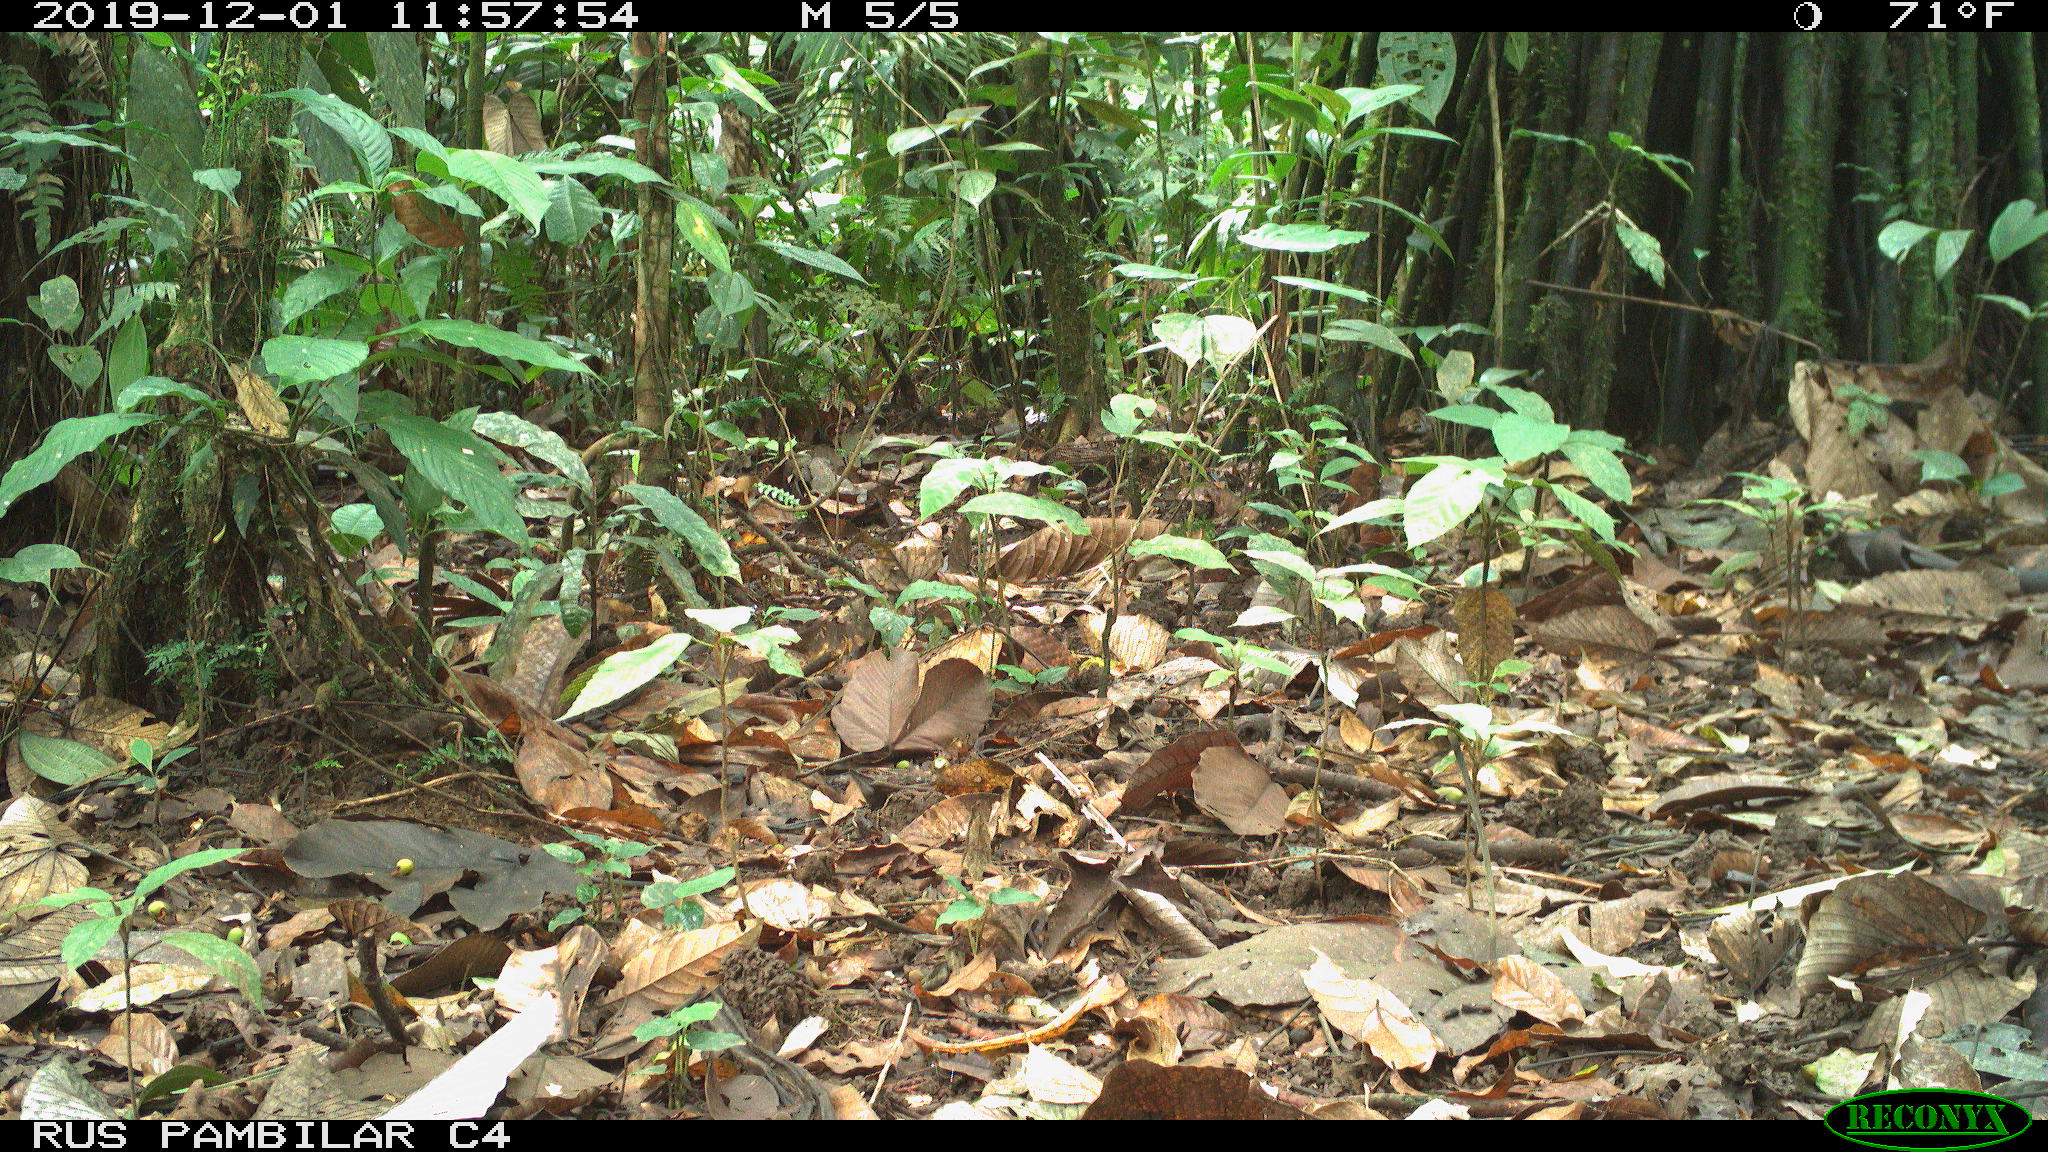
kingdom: Animalia
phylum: Chordata
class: Mammalia
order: Rodentia
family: Dasyproctidae
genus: Dasyprocta
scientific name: Dasyprocta punctata
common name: Central american agouti
